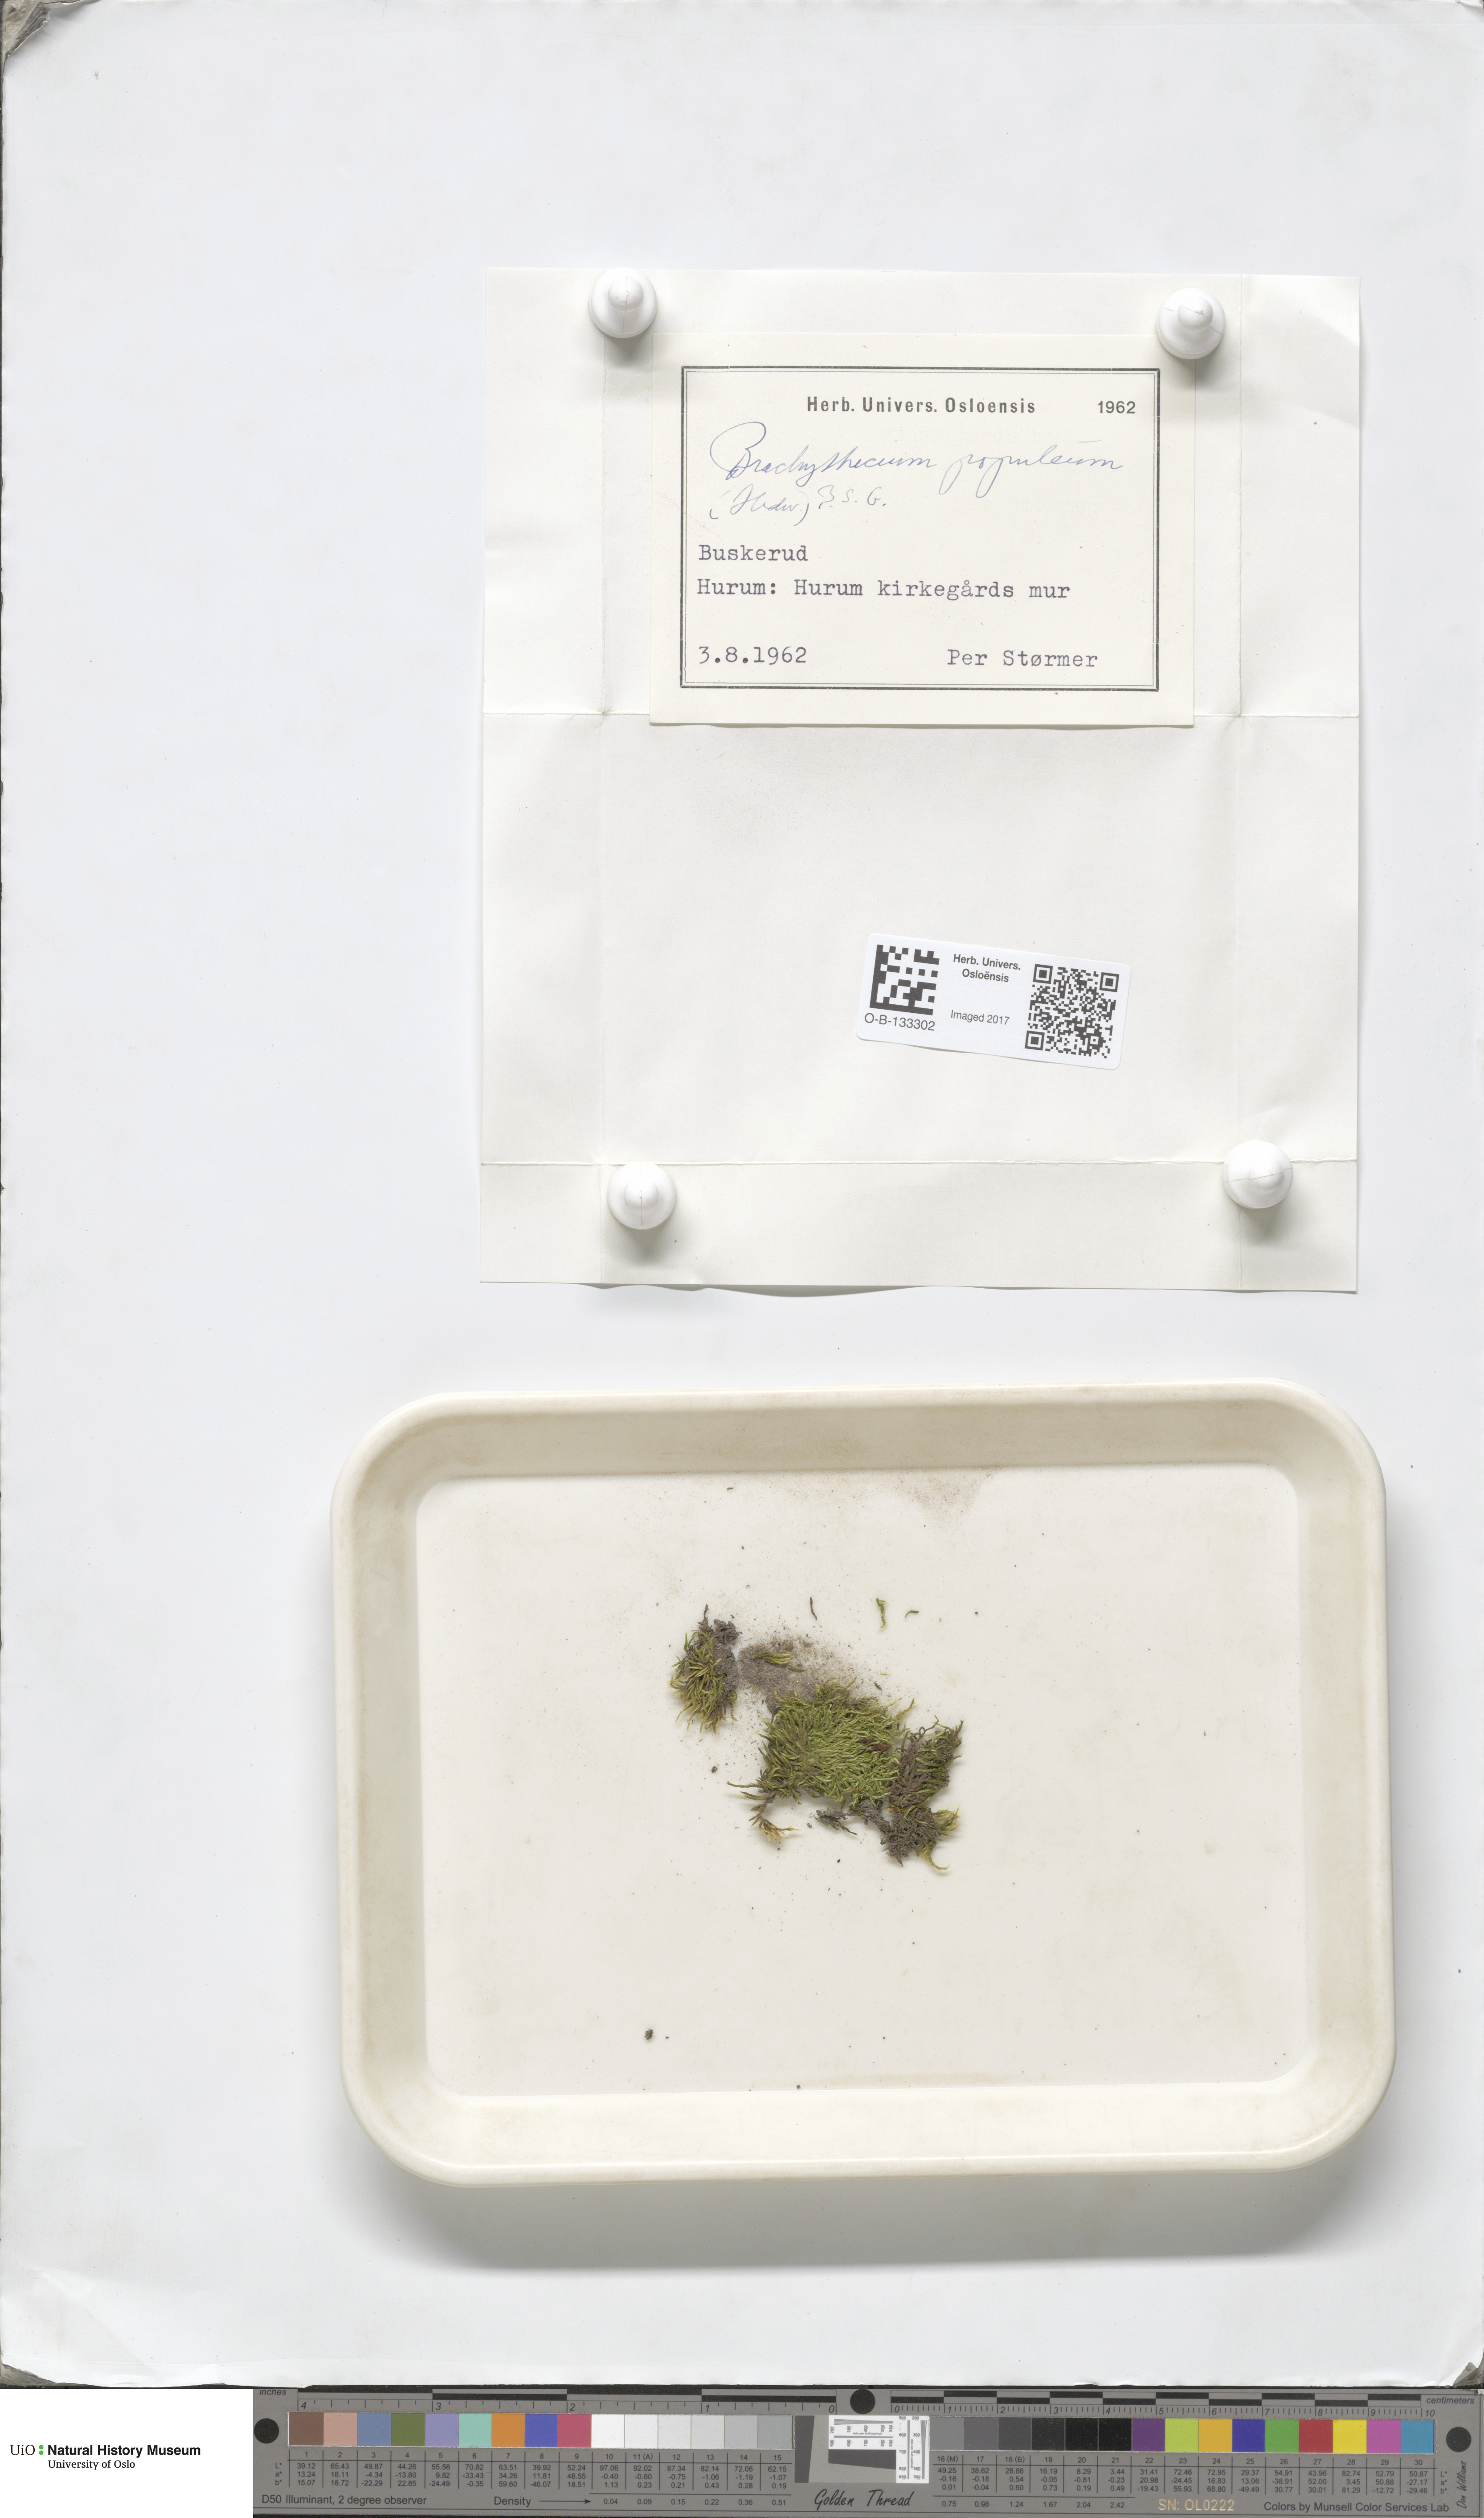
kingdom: Plantae
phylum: Bryophyta
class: Bryopsida
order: Hypnales
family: Brachytheciaceae
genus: Sciuro-hypnum
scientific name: Sciuro-hypnum plumosum
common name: Rusty feather-moss
